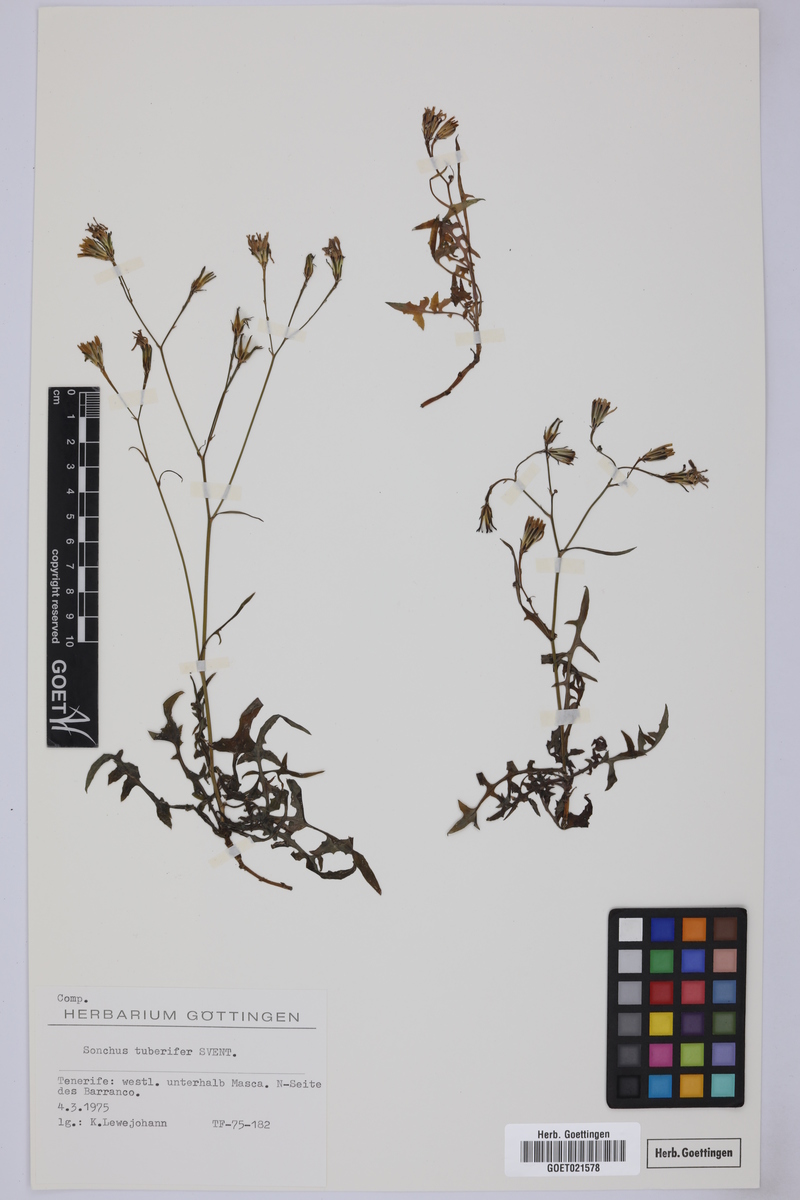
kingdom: Plantae
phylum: Tracheophyta
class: Magnoliopsida
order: Asterales
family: Asteraceae
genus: Sonchus
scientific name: Sonchus tuberifer
